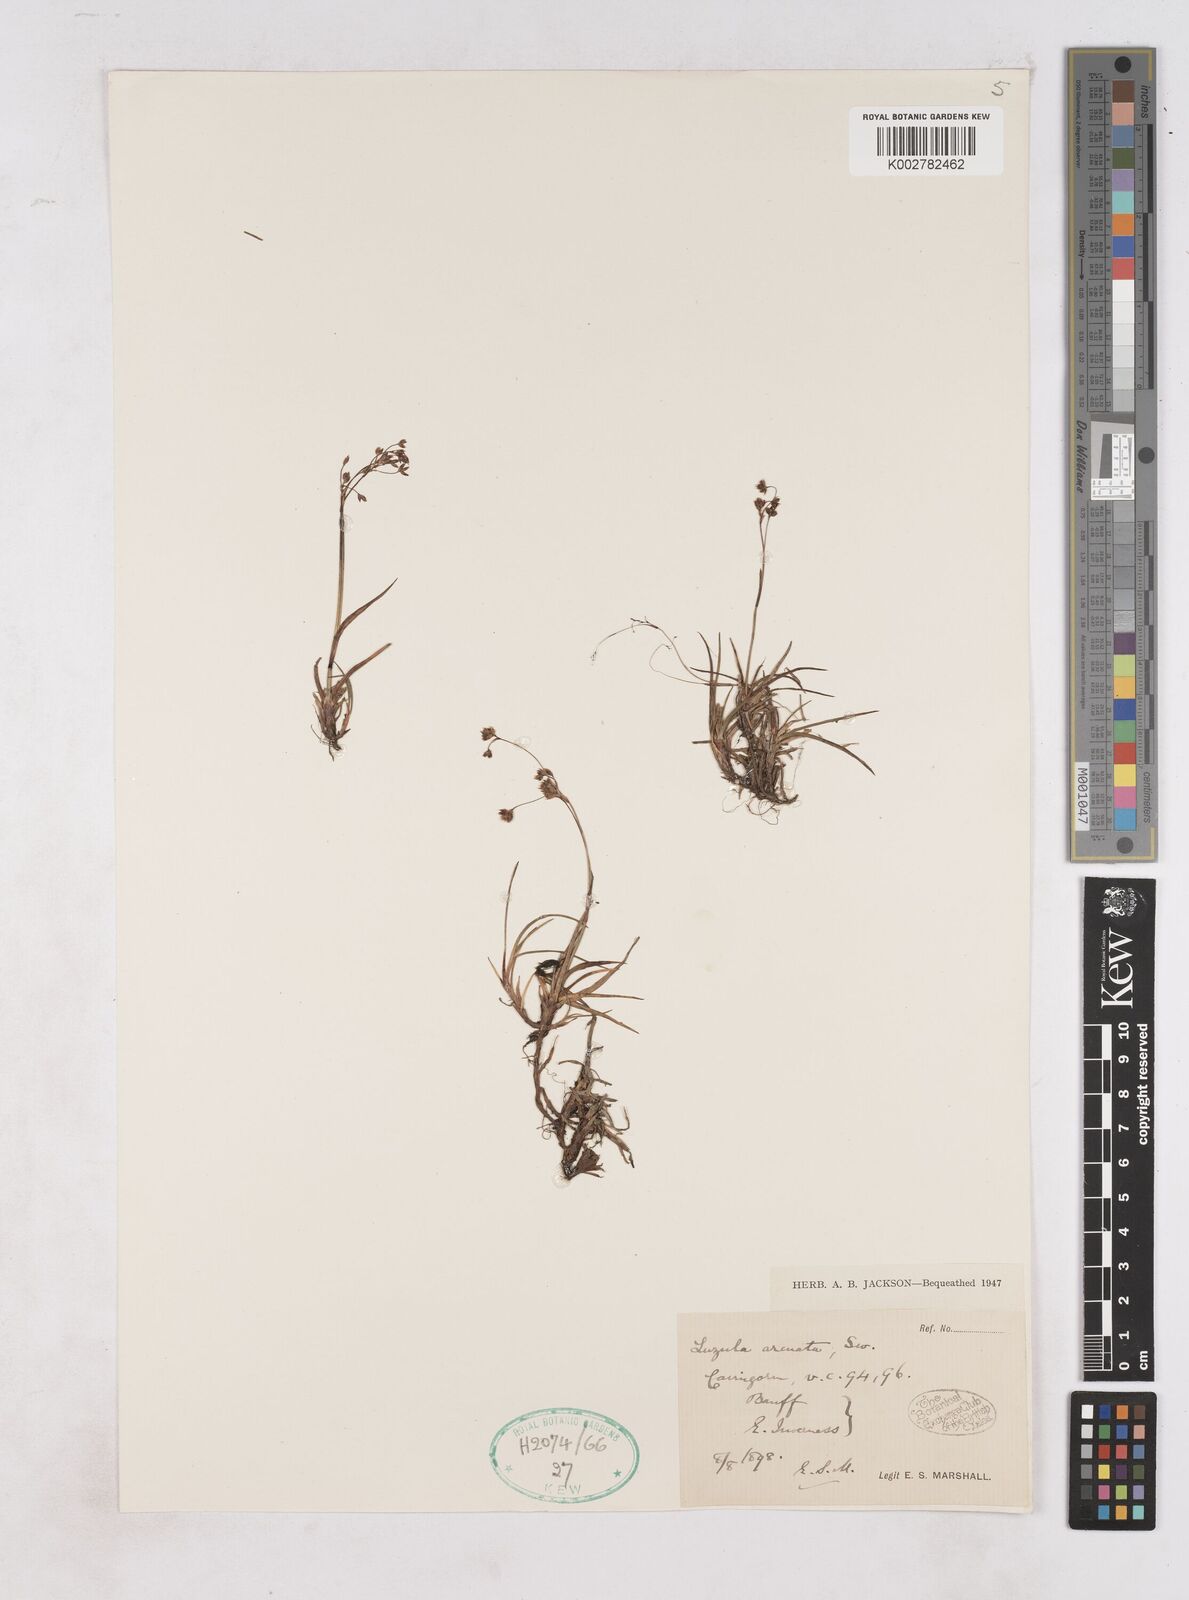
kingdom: Plantae
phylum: Tracheophyta
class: Liliopsida
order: Poales
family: Juncaceae
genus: Luzula
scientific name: Luzula arcuata
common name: Curved wood-rush
